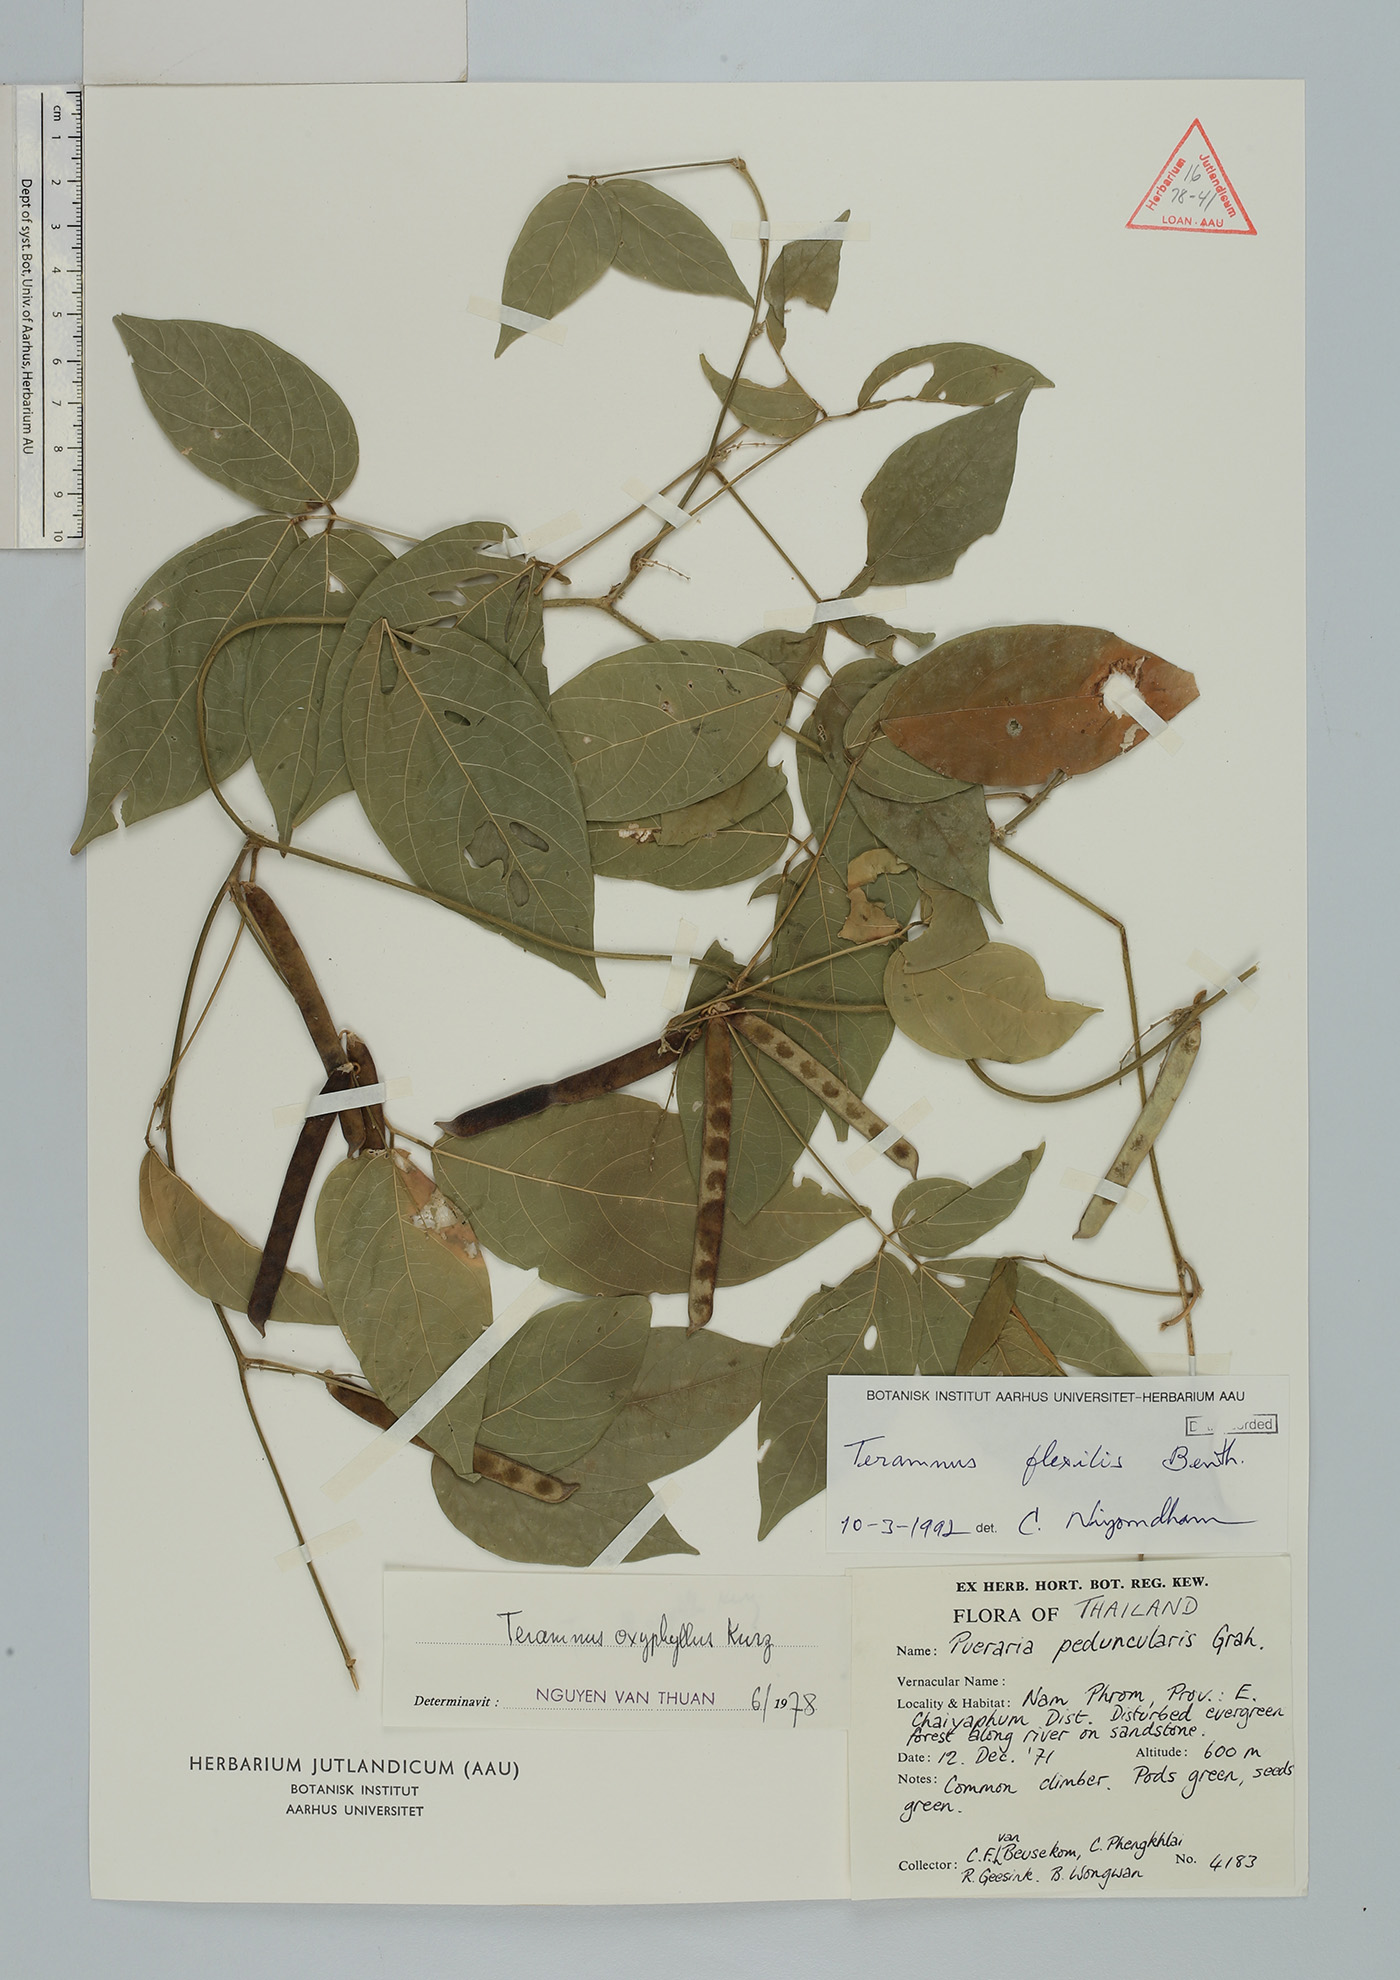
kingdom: Plantae
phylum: Tracheophyta
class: Magnoliopsida
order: Fabales
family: Fabaceae
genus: Teramnus
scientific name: Teramnus flexilis
